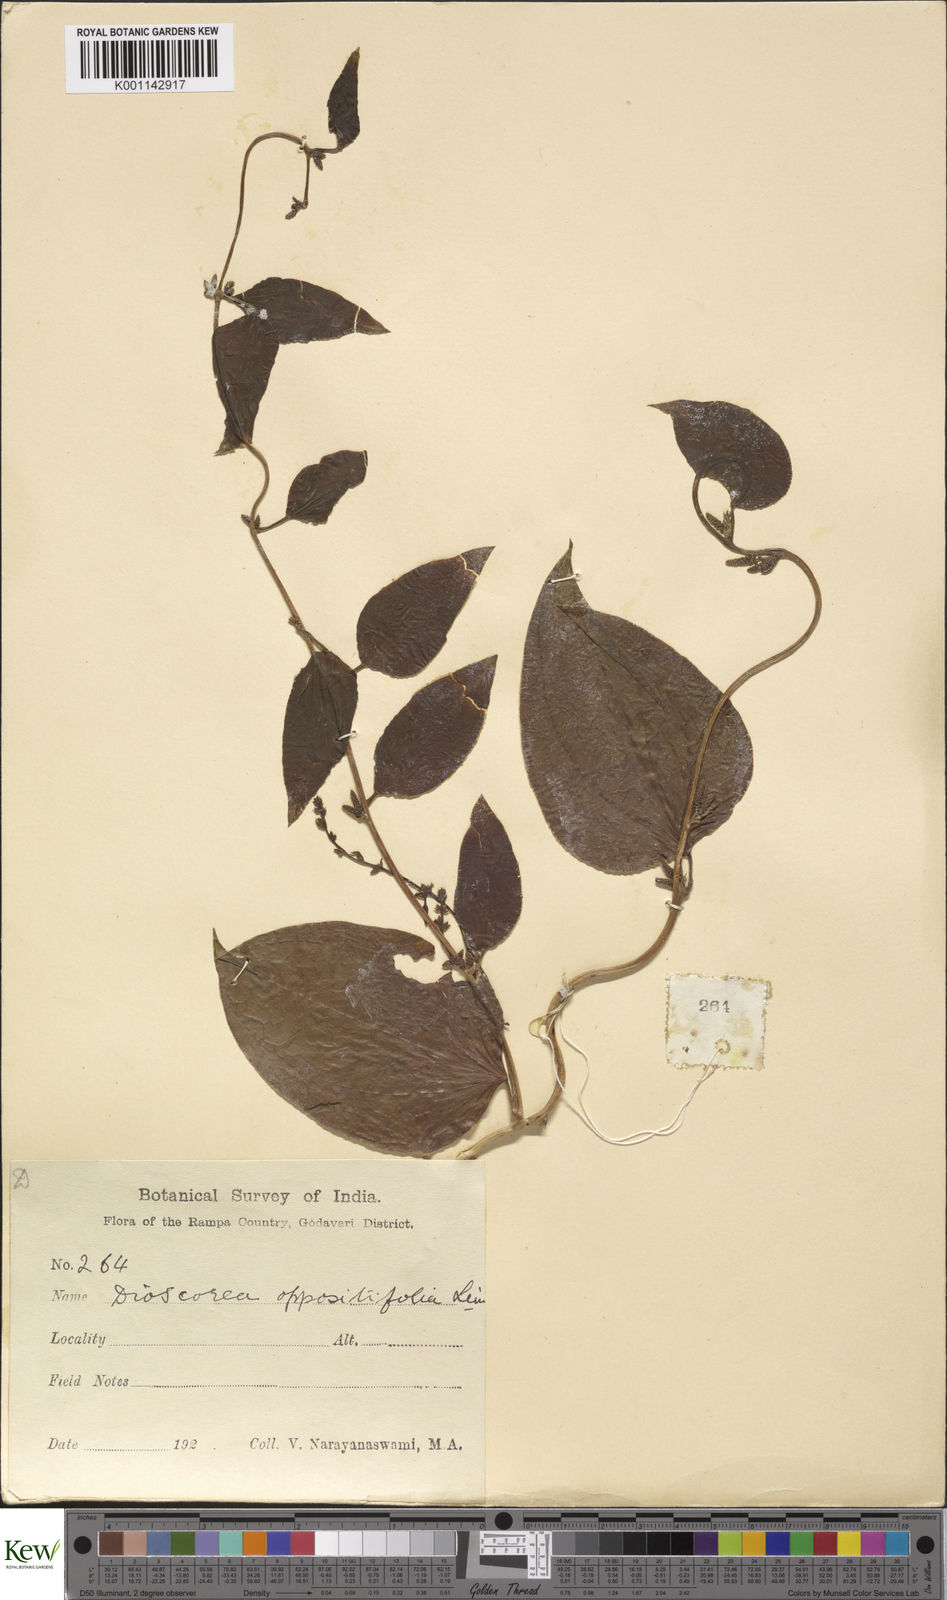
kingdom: Plantae
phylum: Tracheophyta
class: Liliopsida
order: Dioscoreales
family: Dioscoreaceae
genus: Dioscorea
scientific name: Dioscorea oppositifolia
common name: Chinese yam
